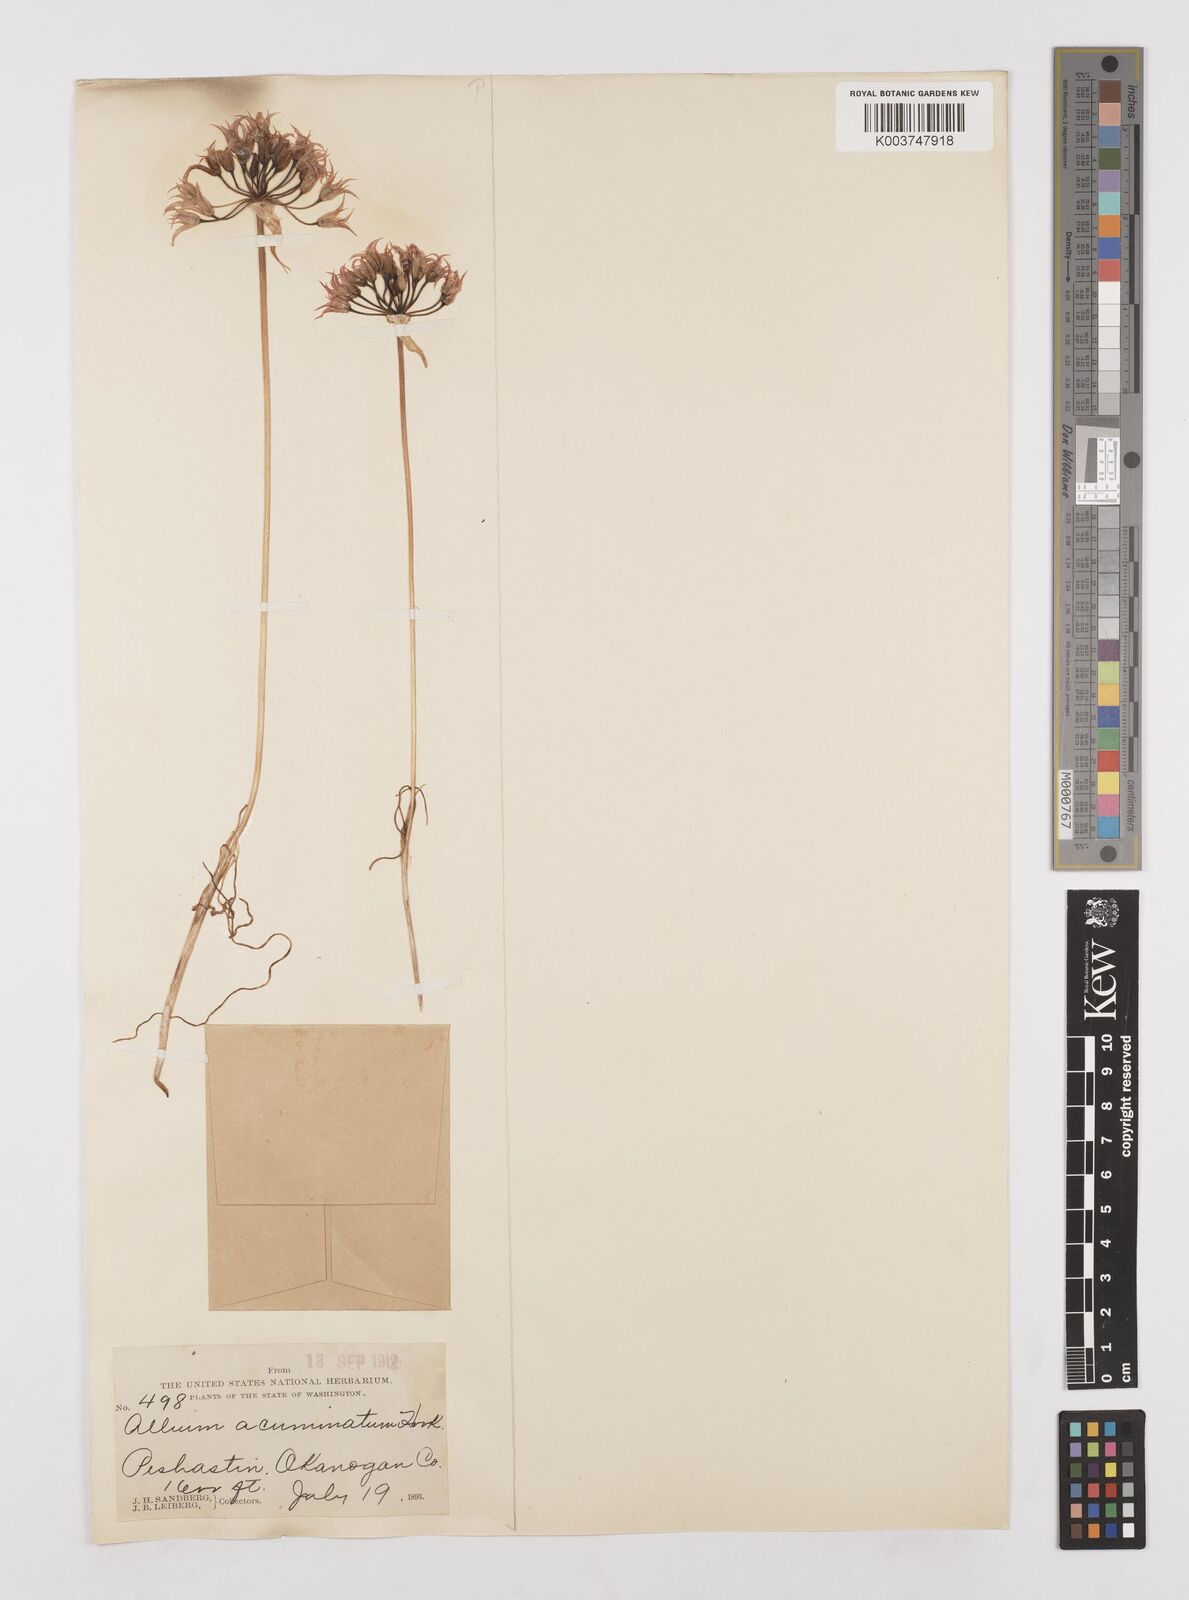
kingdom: Plantae
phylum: Tracheophyta
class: Liliopsida
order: Asparagales
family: Amaryllidaceae
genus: Allium
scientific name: Allium acuminatum
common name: Hooker's onion
